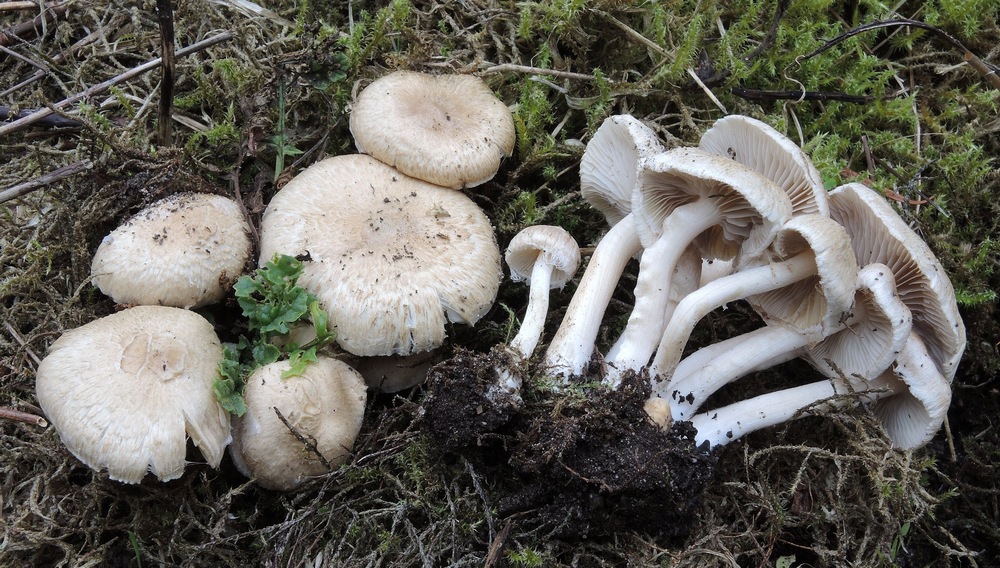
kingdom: Fungi
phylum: Basidiomycota
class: Agaricomycetes
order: Agaricales
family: Inocybaceae
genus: Inocybe
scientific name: Inocybe sindonia
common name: bleg trævlhat
